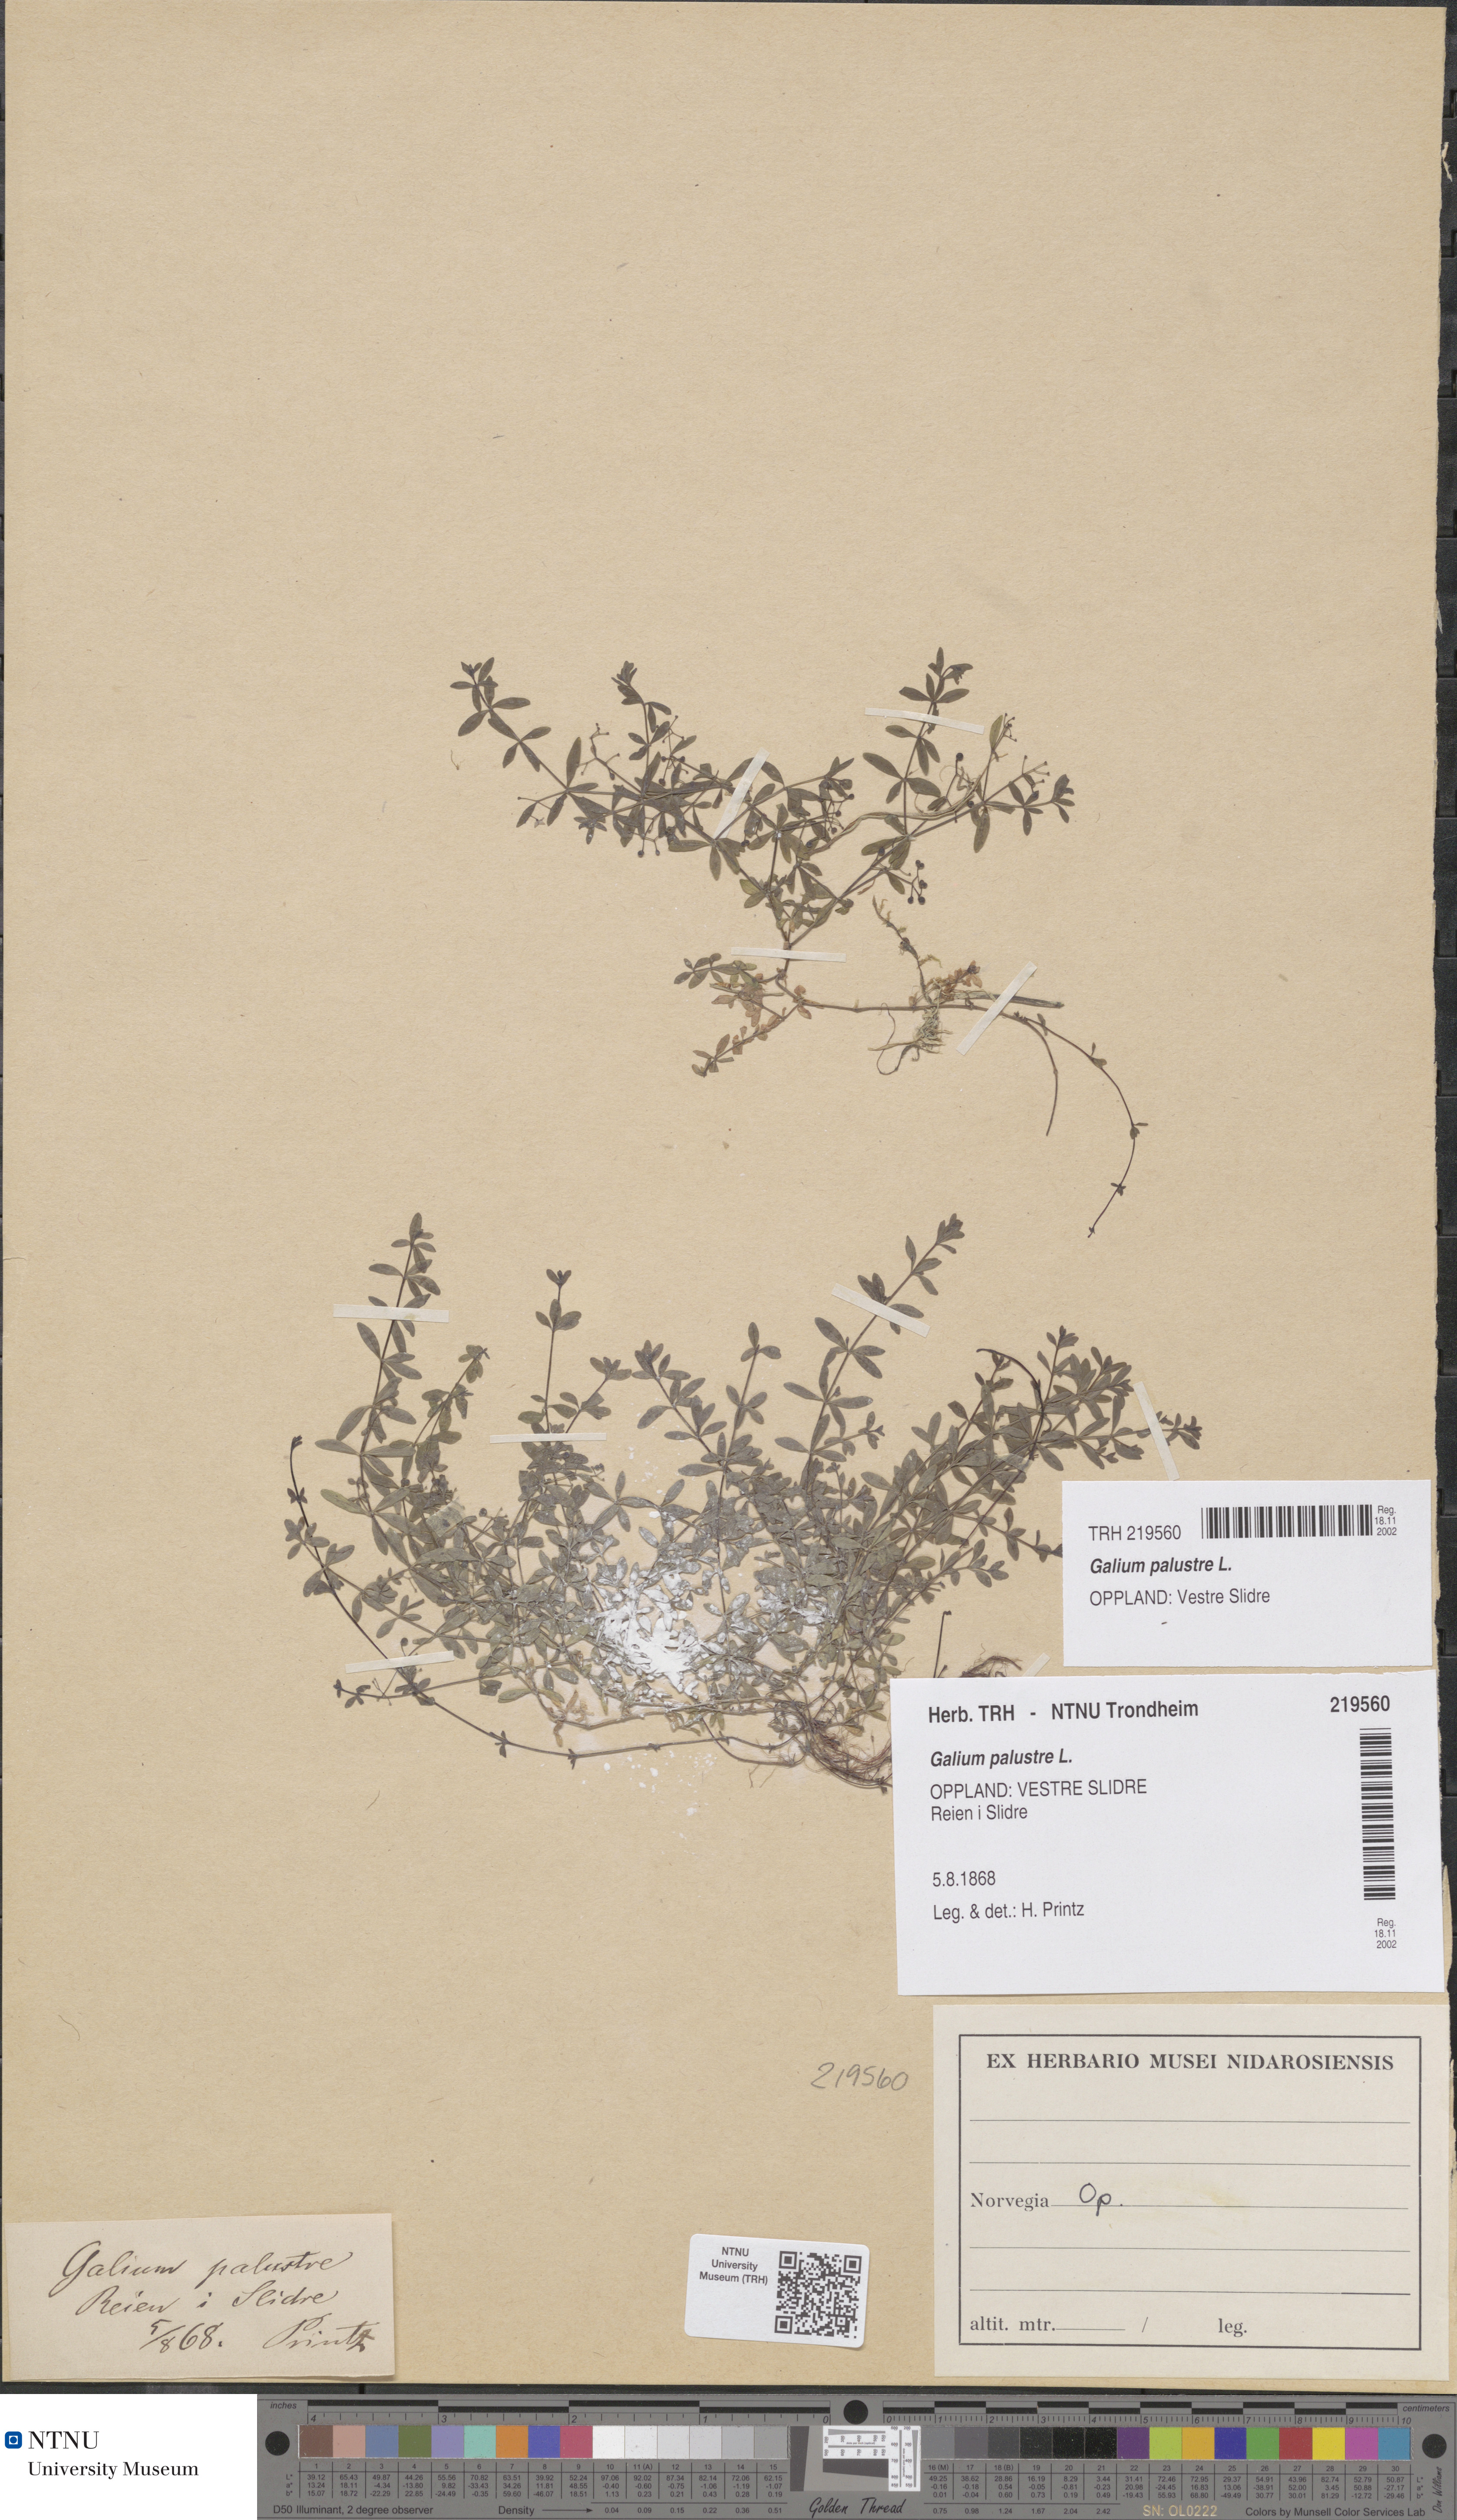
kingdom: Plantae
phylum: Tracheophyta
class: Magnoliopsida
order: Gentianales
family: Rubiaceae
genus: Galium
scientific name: Galium palustre
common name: Common marsh-bedstraw
